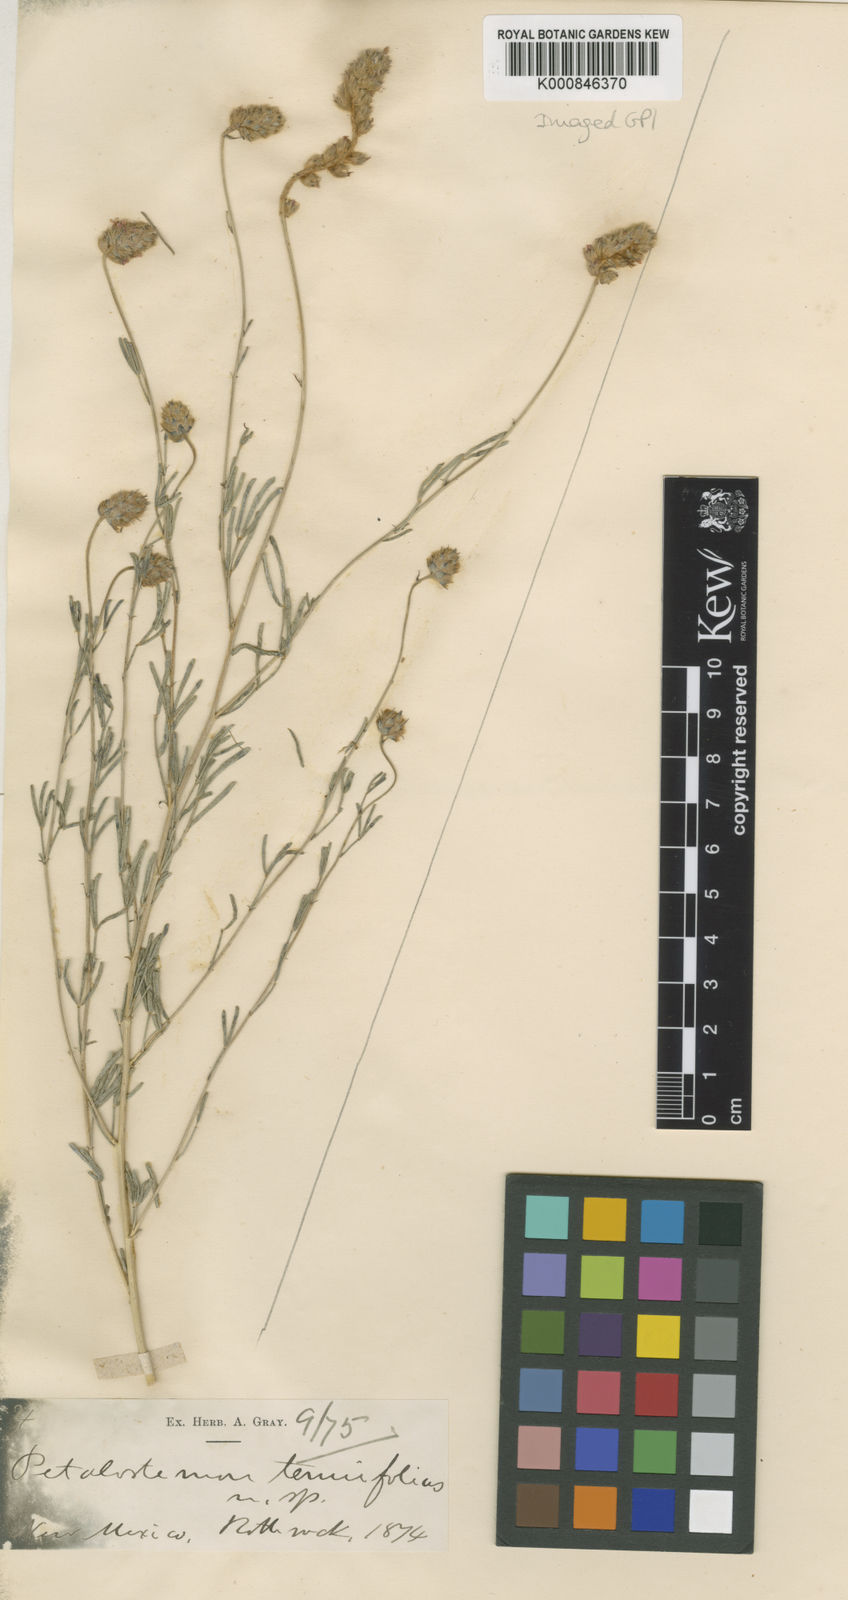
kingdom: Plantae
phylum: Tracheophyta
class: Magnoliopsida
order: Fabales
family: Fabaceae
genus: Dalea
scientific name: Dalea tenuifolia
